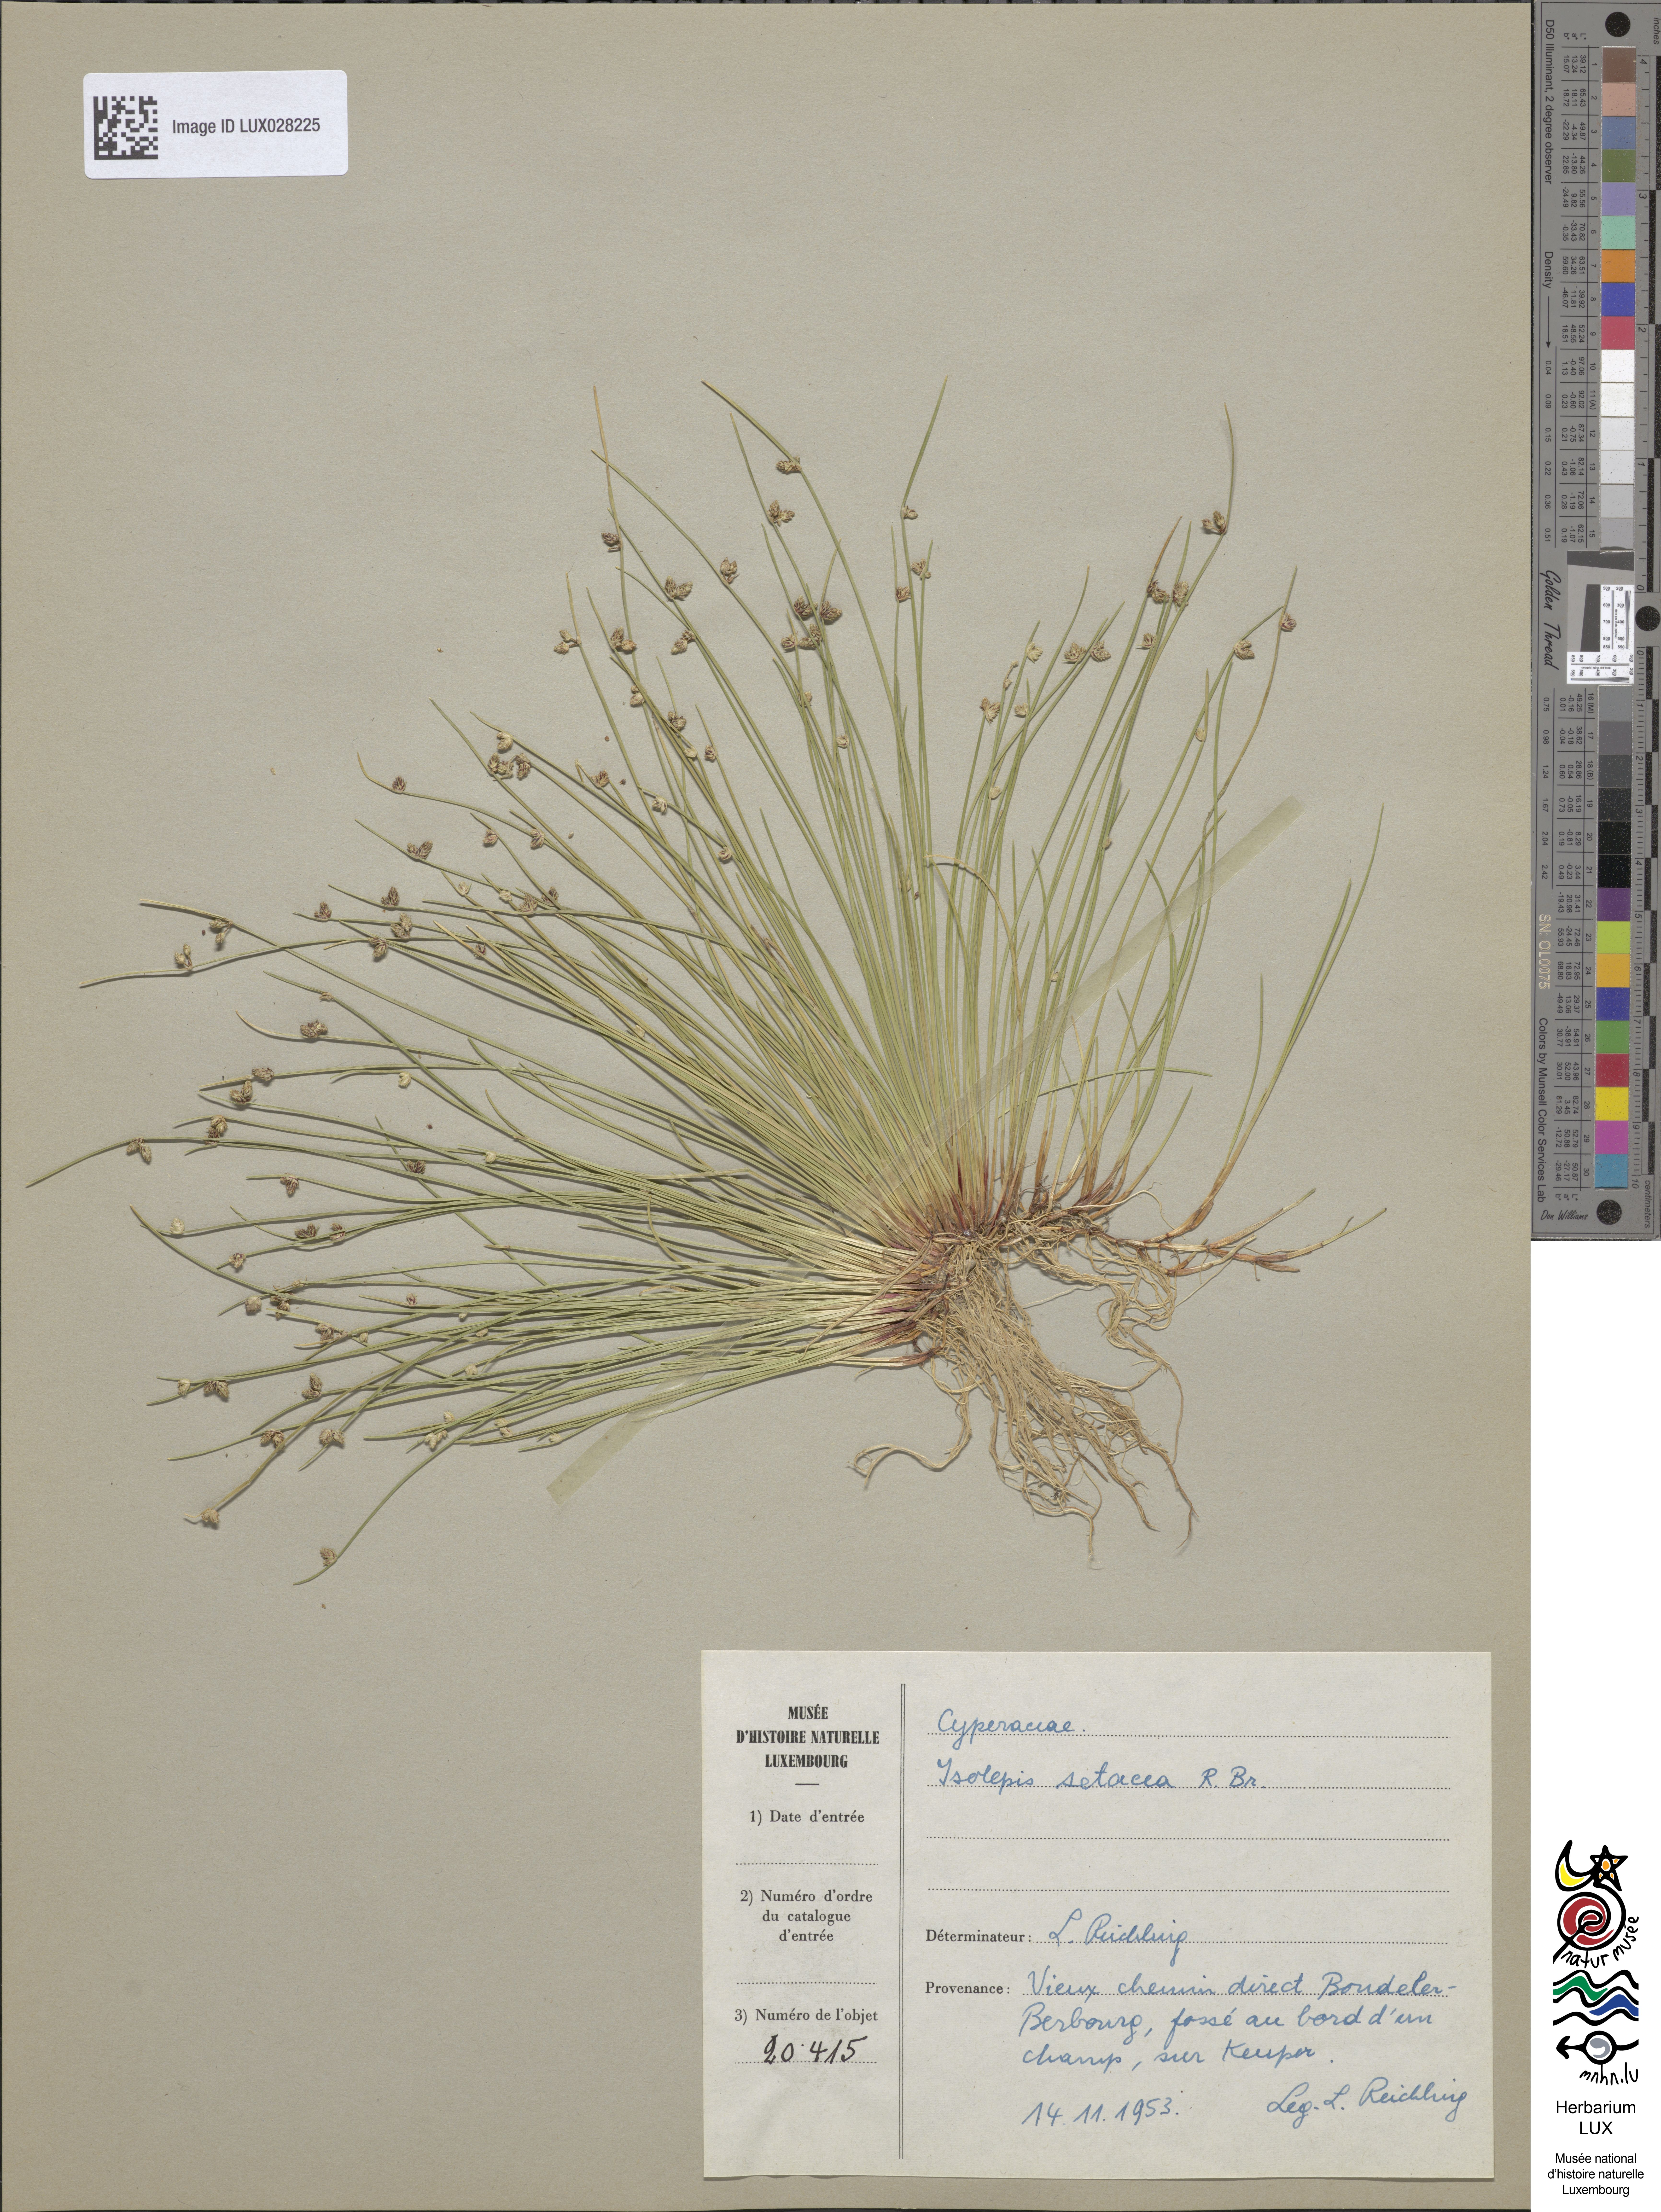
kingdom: Plantae
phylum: Tracheophyta
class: Liliopsida
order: Poales
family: Cyperaceae
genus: Isolepis
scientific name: Isolepis setacea
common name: Bristle club-rush
